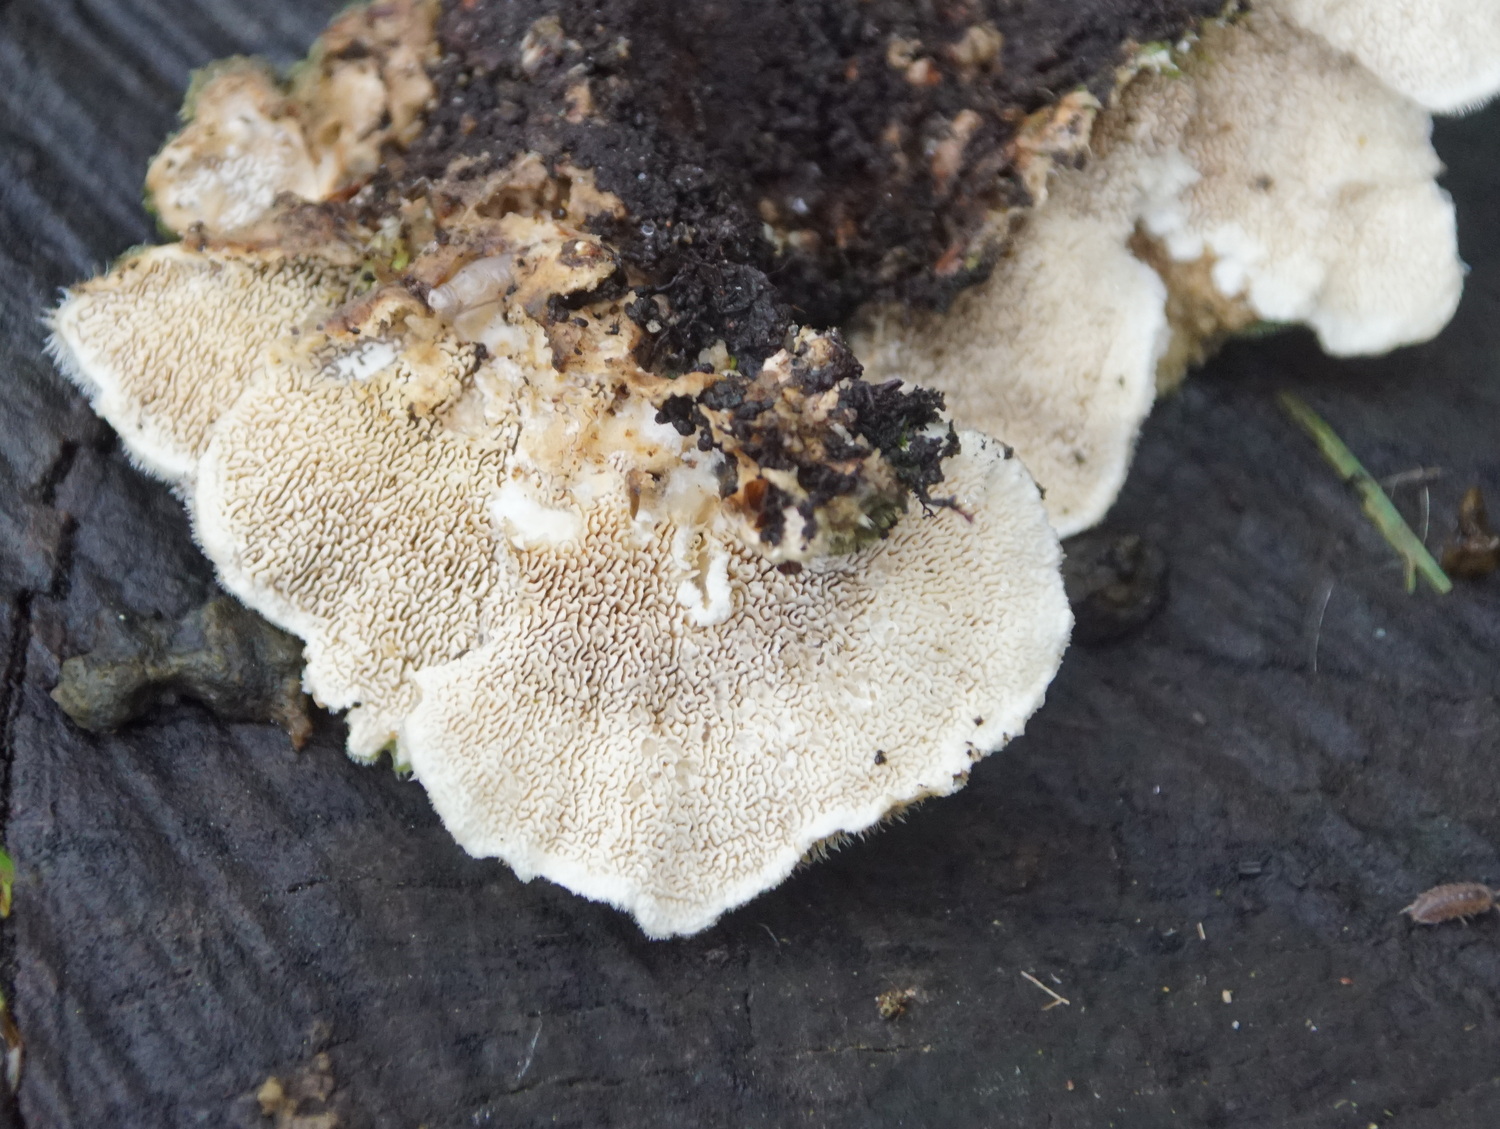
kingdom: Fungi
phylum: Basidiomycota
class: Agaricomycetes
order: Polyporales
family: Cerrenaceae
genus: Cerrena
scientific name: Cerrena unicolor
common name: ensfarvet læderporesvamp
